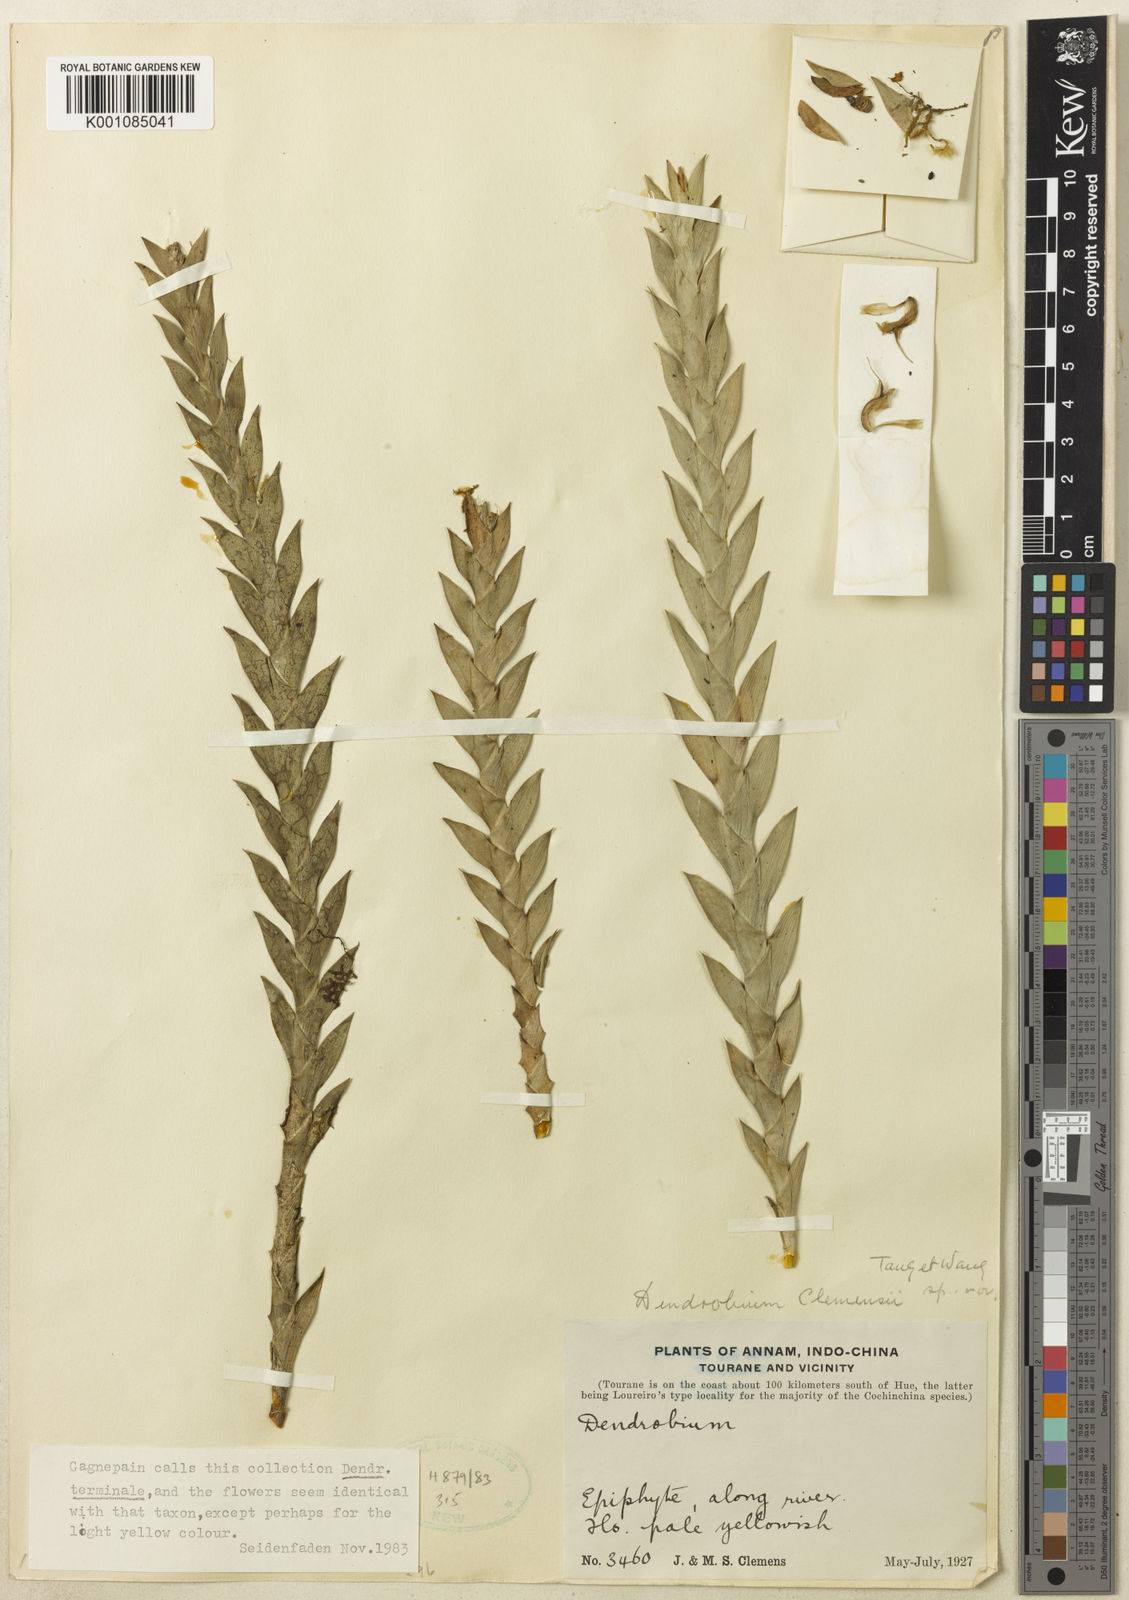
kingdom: Plantae
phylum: Tracheophyta
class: Liliopsida
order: Asparagales
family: Orchidaceae
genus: Dendrobium
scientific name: Dendrobium terminale
